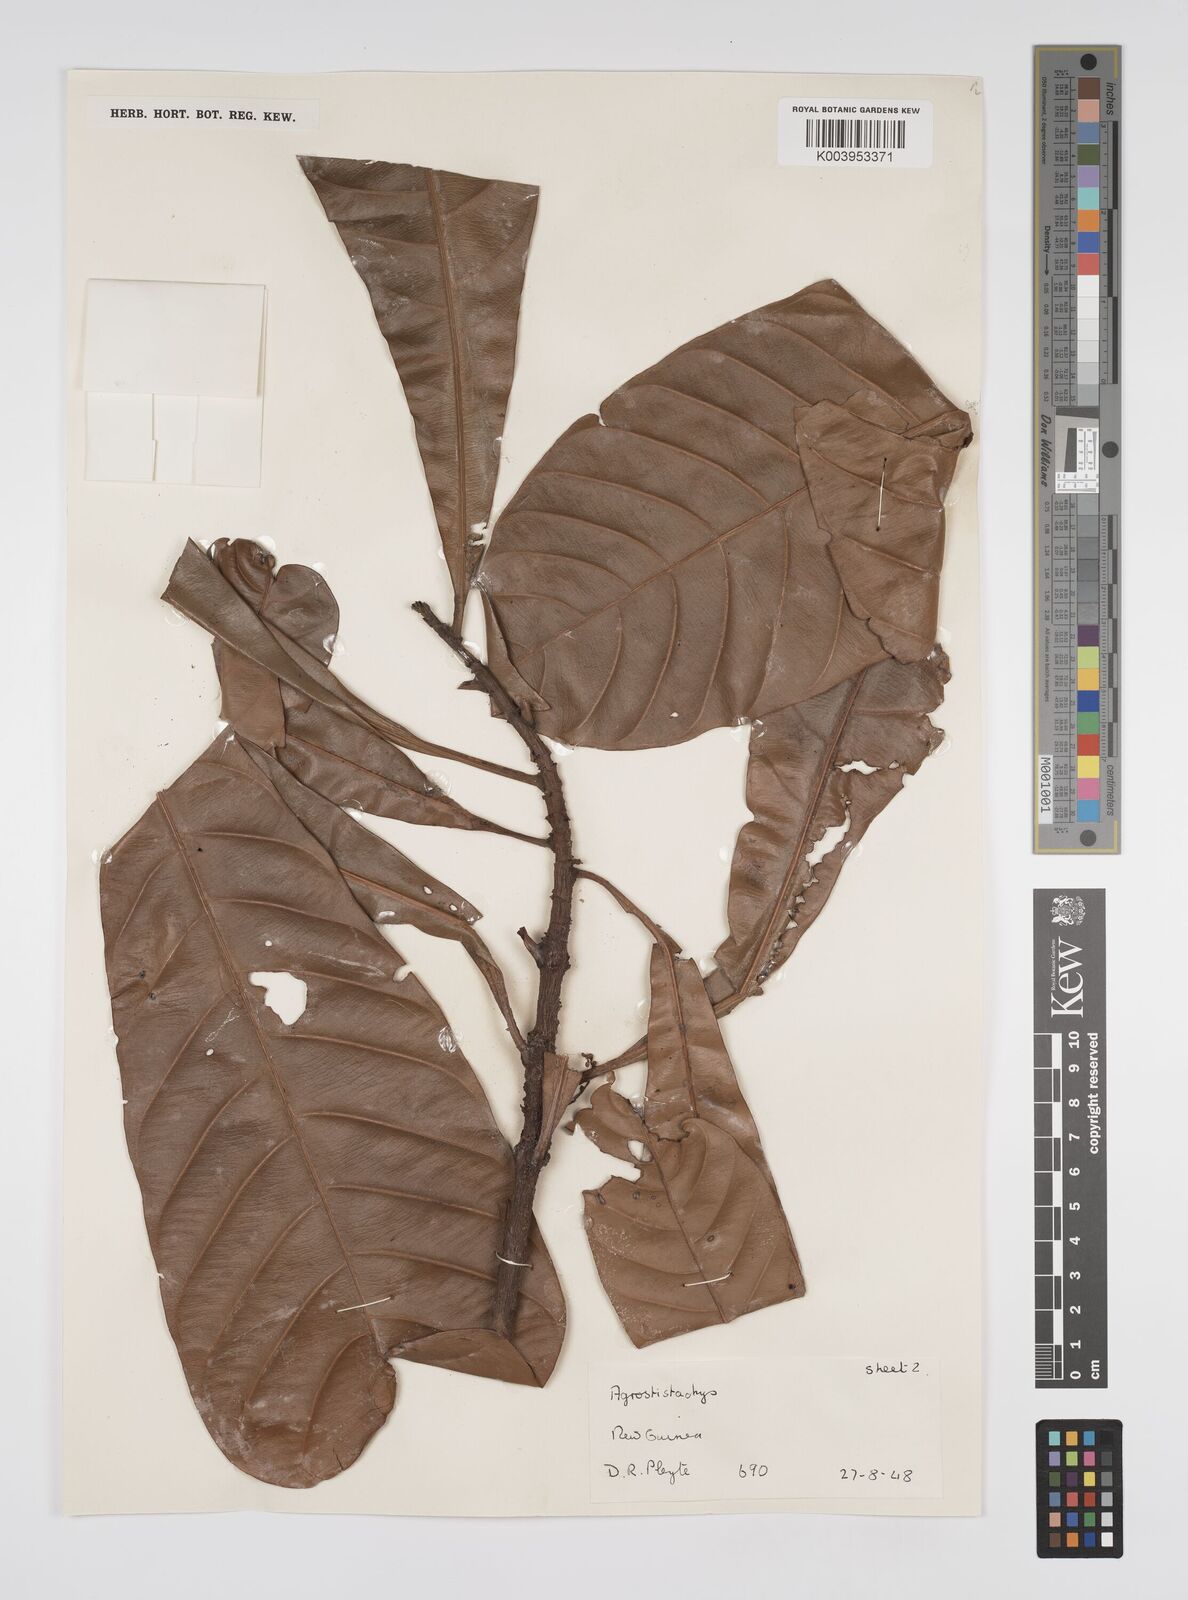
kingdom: Plantae
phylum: Tracheophyta
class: Magnoliopsida
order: Malpighiales
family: Euphorbiaceae
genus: Agrostistachys
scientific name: Agrostistachys
